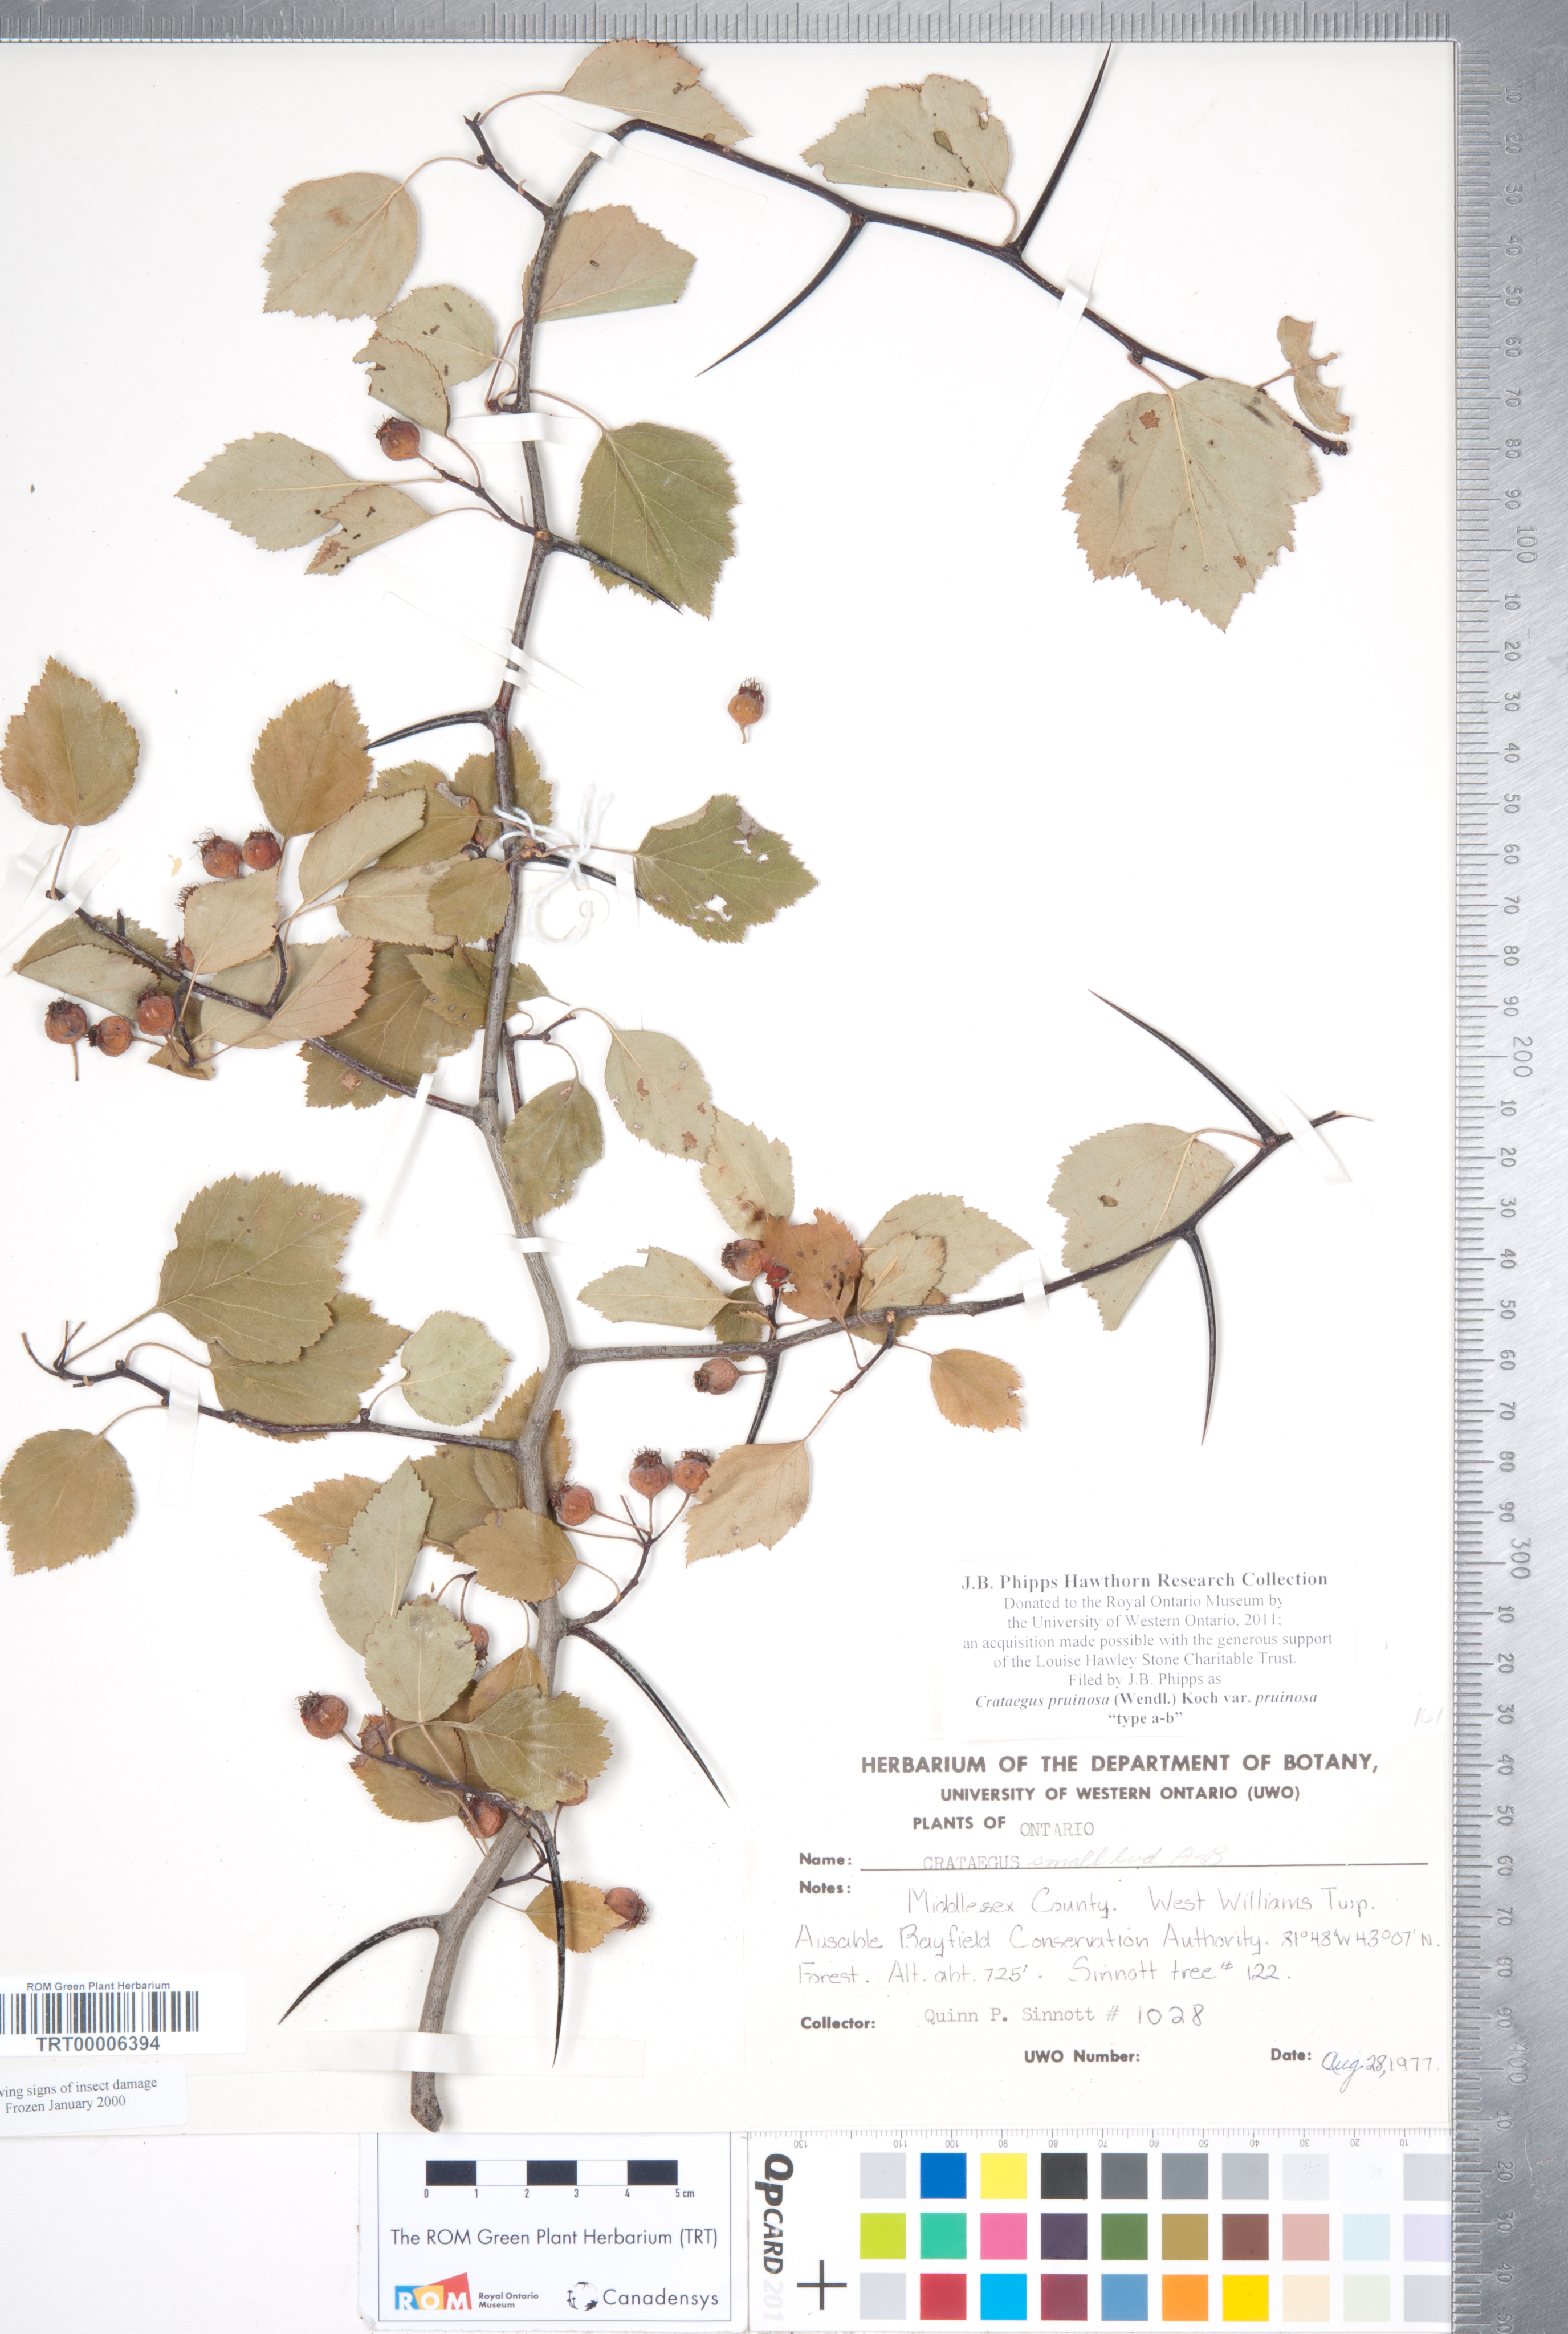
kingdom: Plantae
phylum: Tracheophyta
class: Magnoliopsida
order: Rosales
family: Rosaceae
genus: Crataegus
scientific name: Crataegus pruinosa
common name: Waxy-fruit hawthorn
